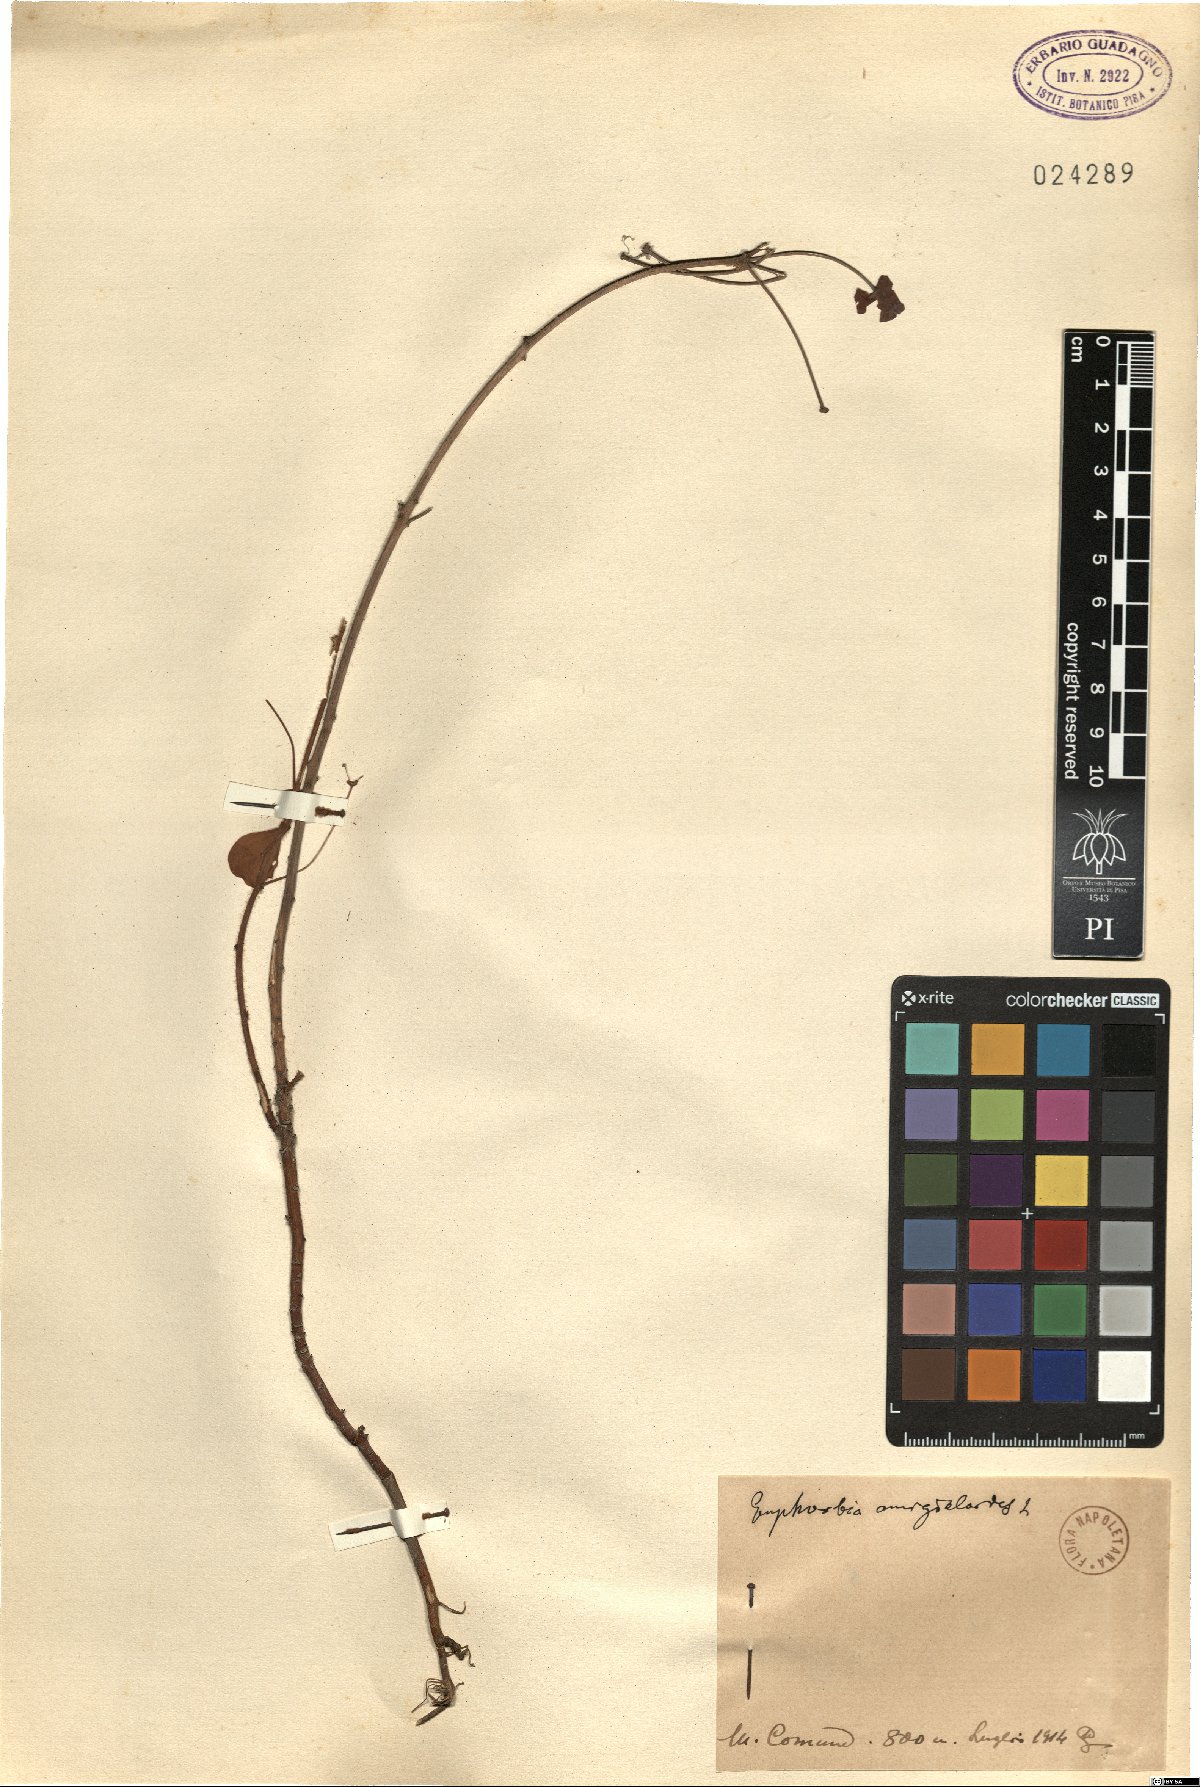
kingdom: Plantae
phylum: Tracheophyta
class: Magnoliopsida
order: Malpighiales
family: Euphorbiaceae
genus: Euphorbia
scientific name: Euphorbia amygdaloides
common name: Wood spurge
